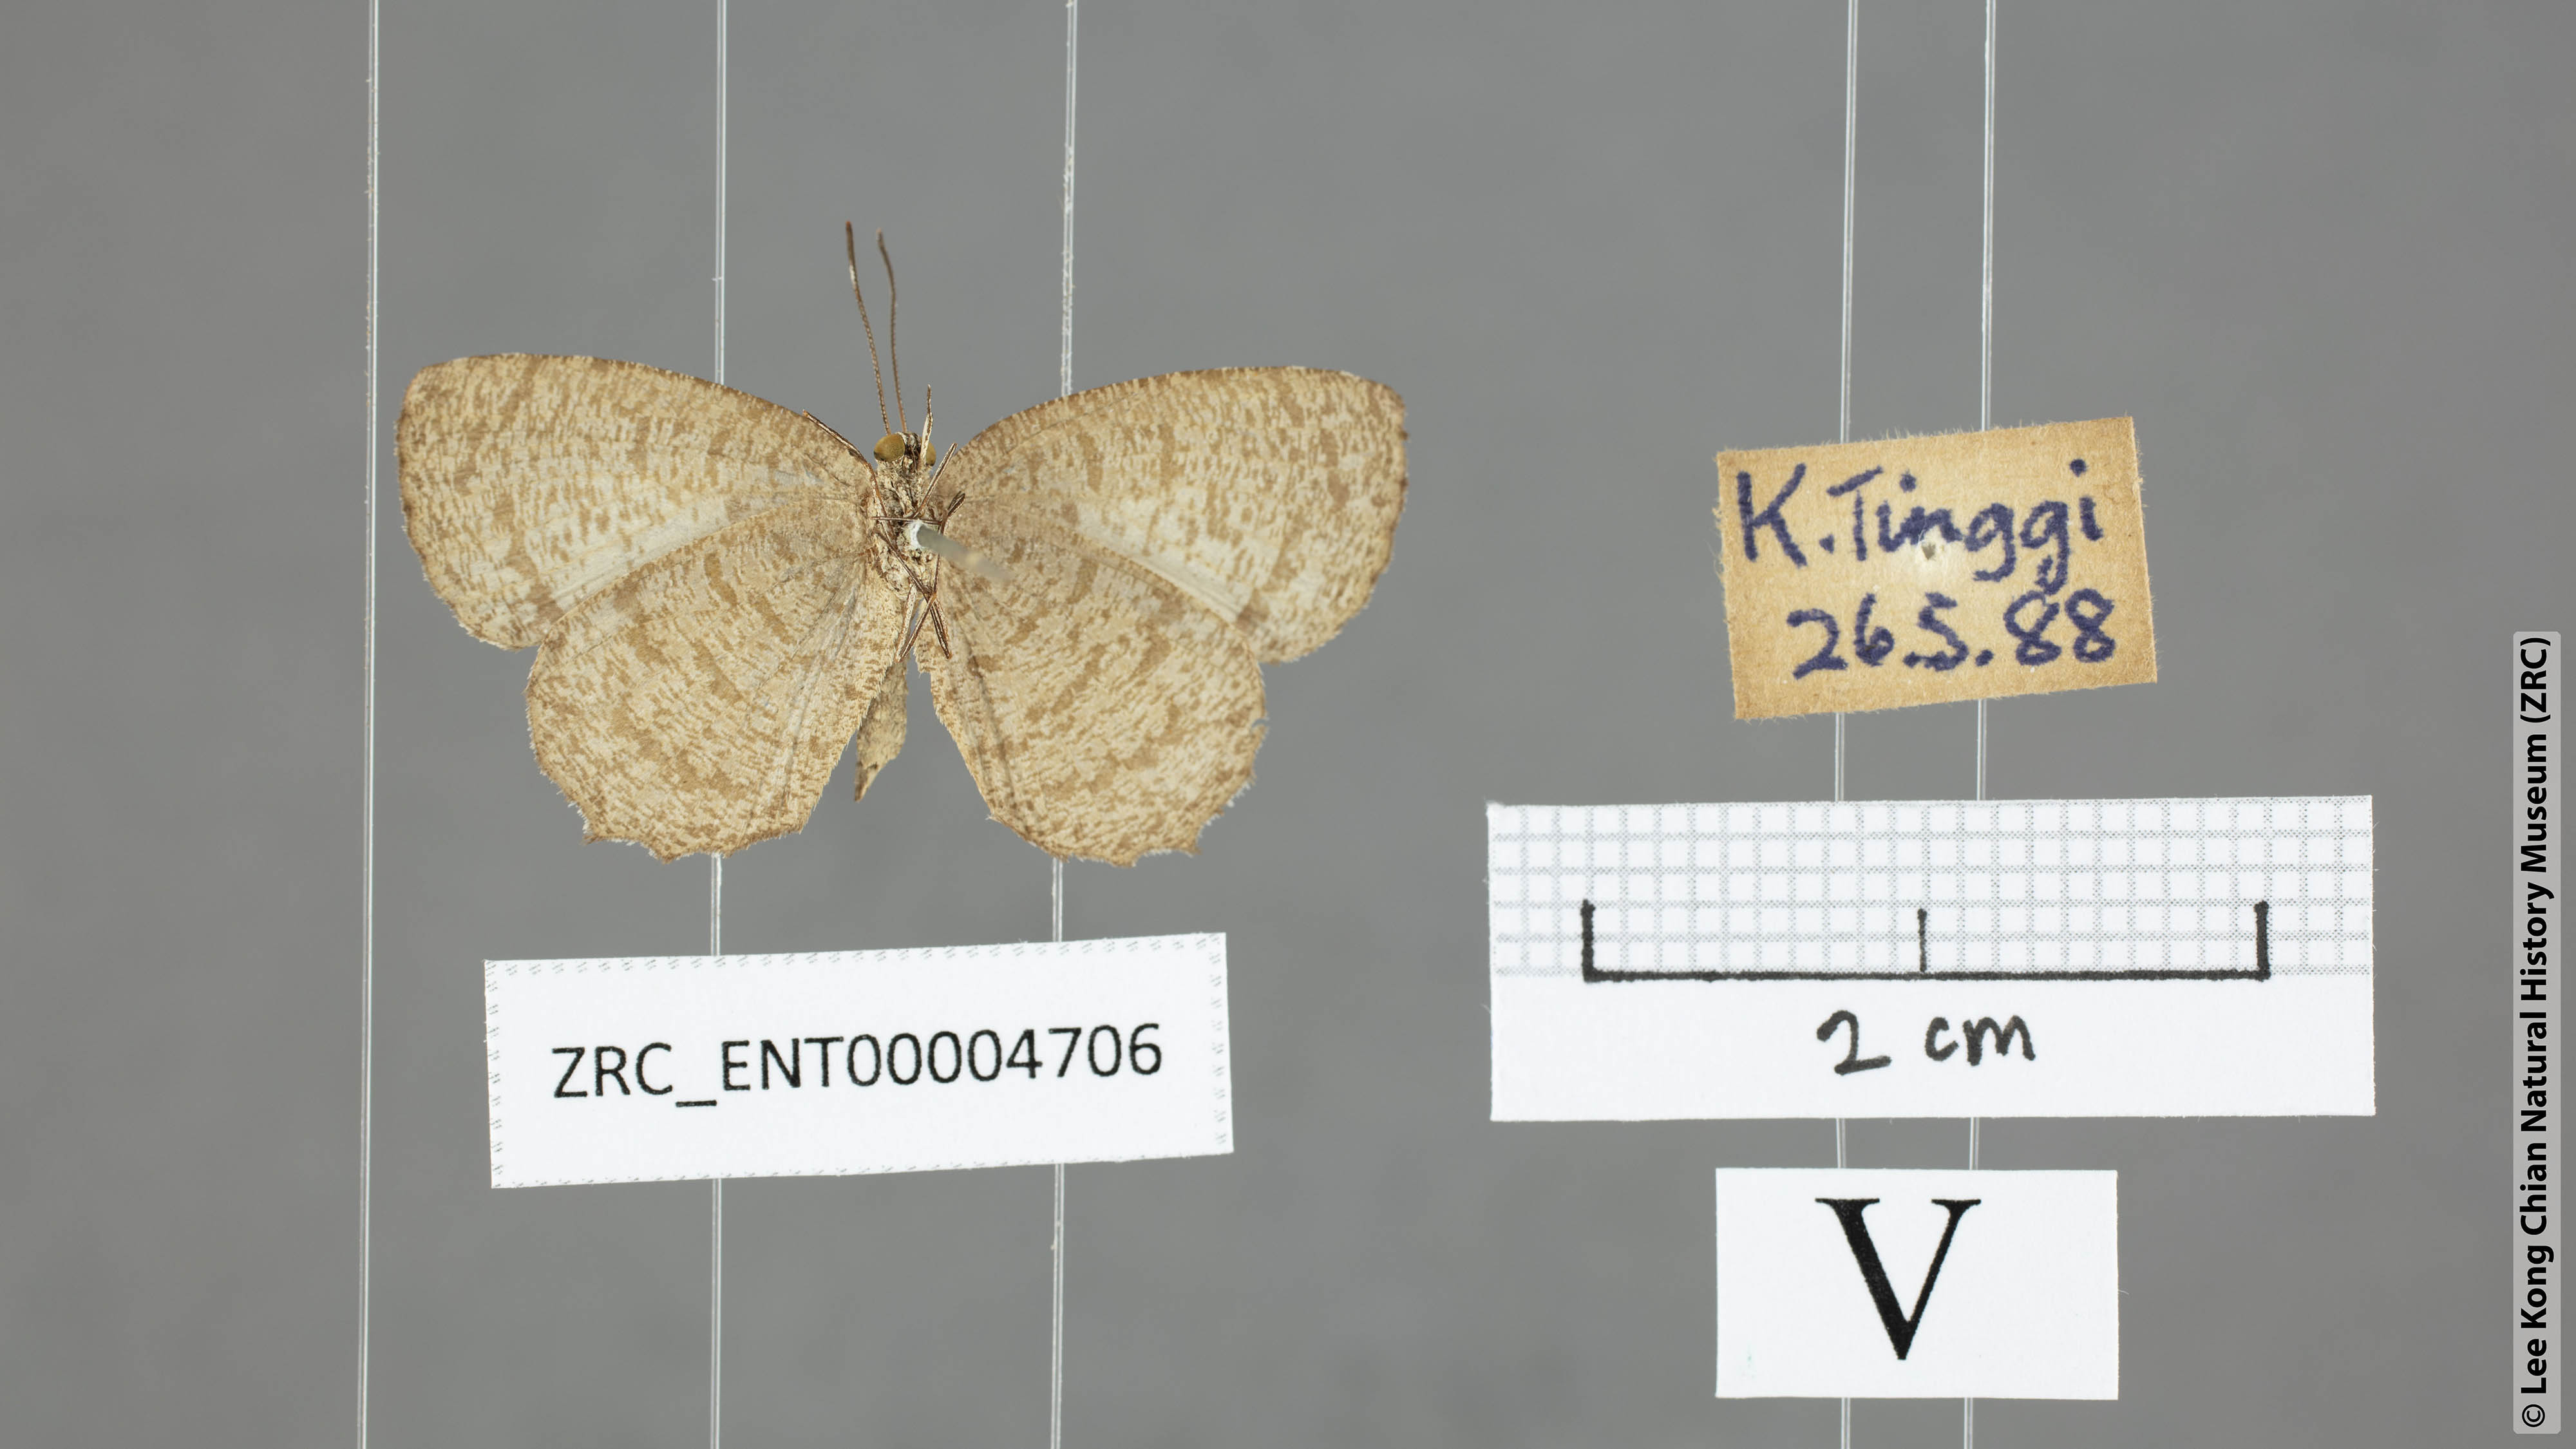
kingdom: Animalia
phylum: Arthropoda
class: Insecta
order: Lepidoptera
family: Lycaenidae
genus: Allotinus
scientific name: Allotinus subviolaceus
